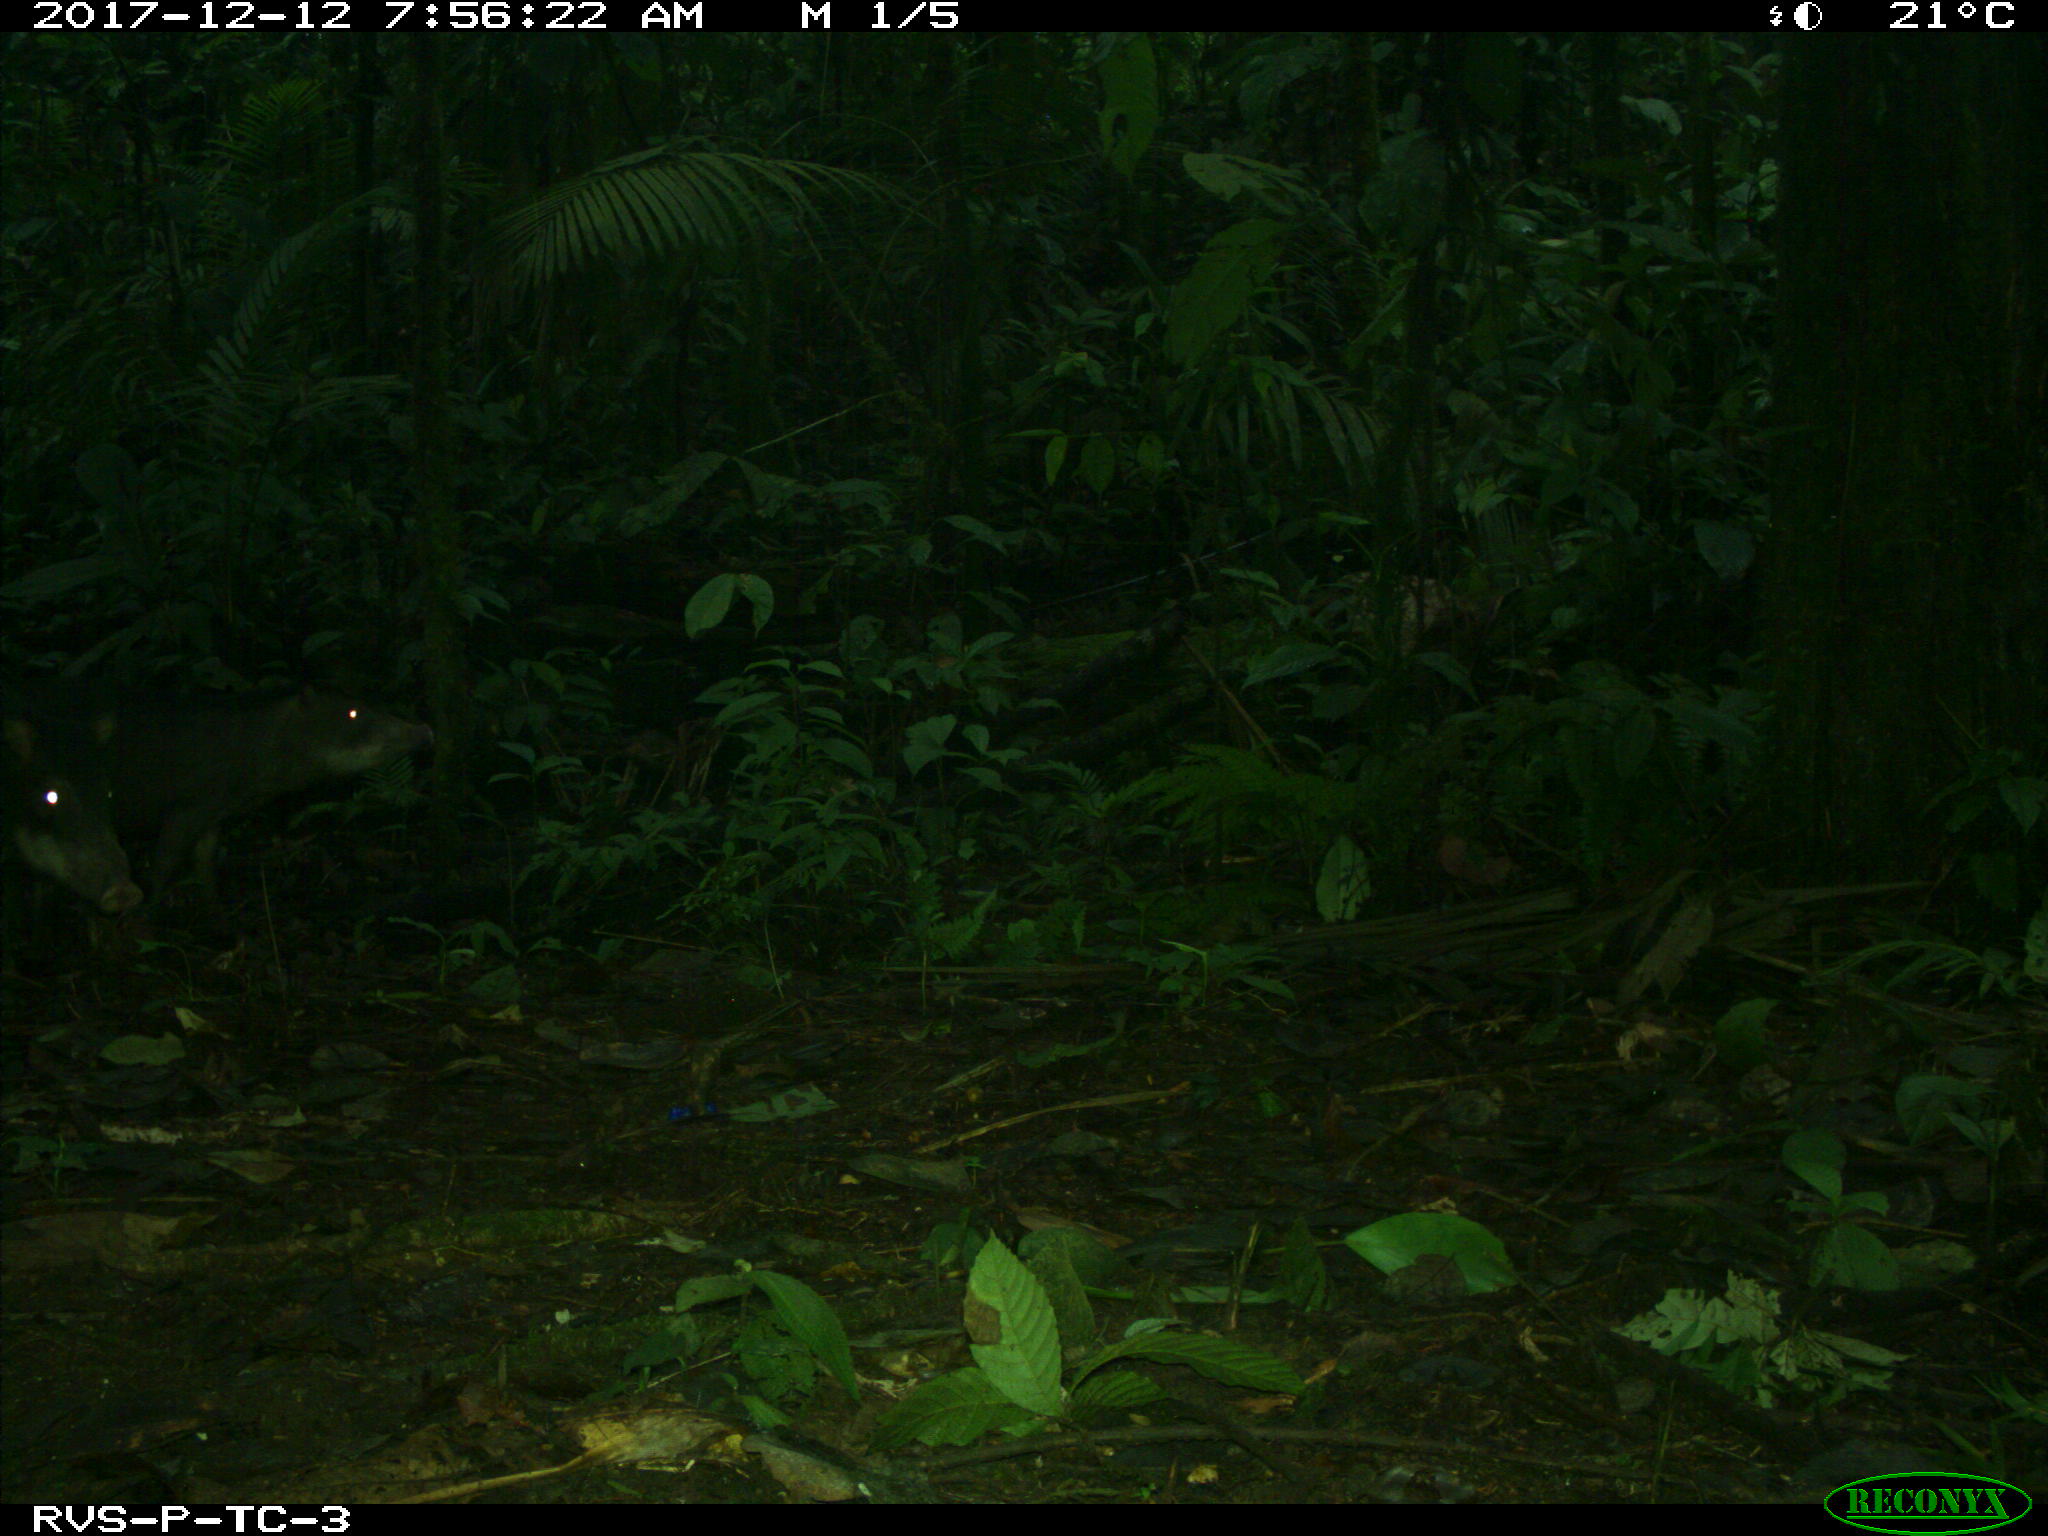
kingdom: Animalia
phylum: Chordata
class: Mammalia
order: Artiodactyla
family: Tayassuidae
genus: Tayassu
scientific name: Tayassu pecari
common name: White-lipped peccary
